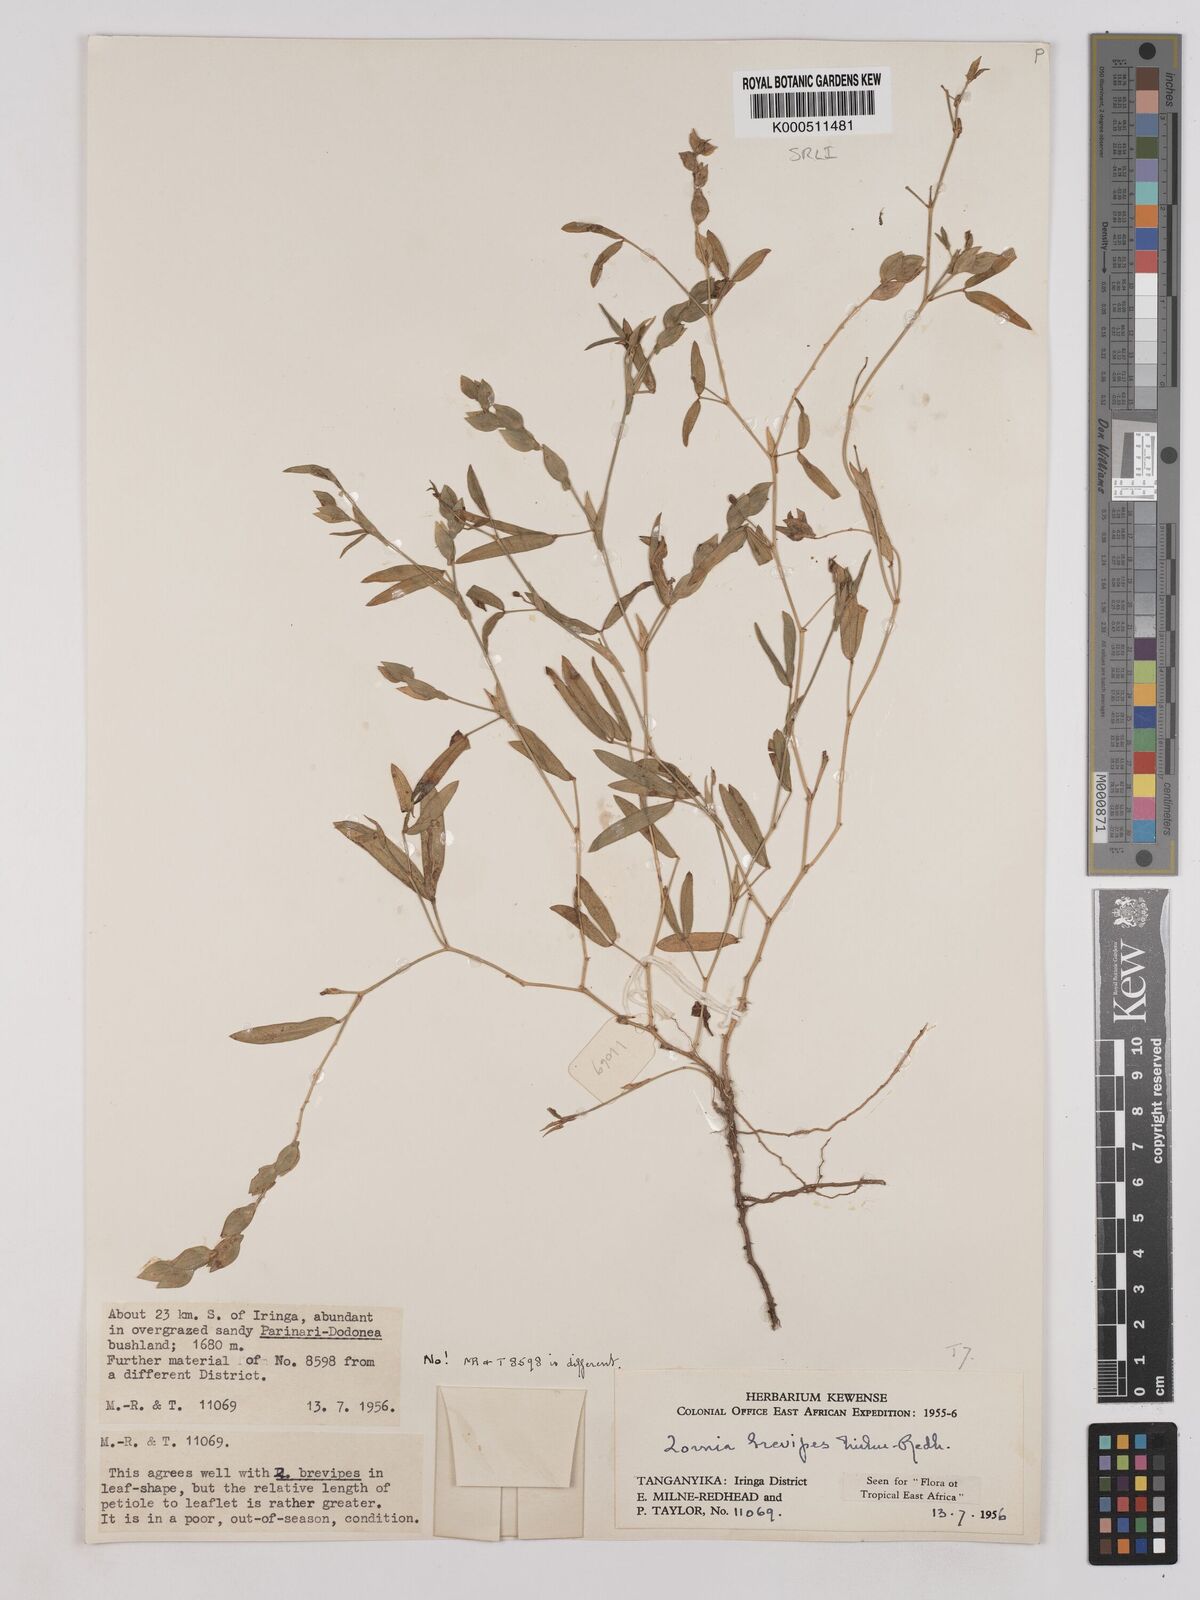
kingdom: Plantae
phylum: Tracheophyta
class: Magnoliopsida
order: Fabales
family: Fabaceae
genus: Zornia
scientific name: Zornia brevipes
